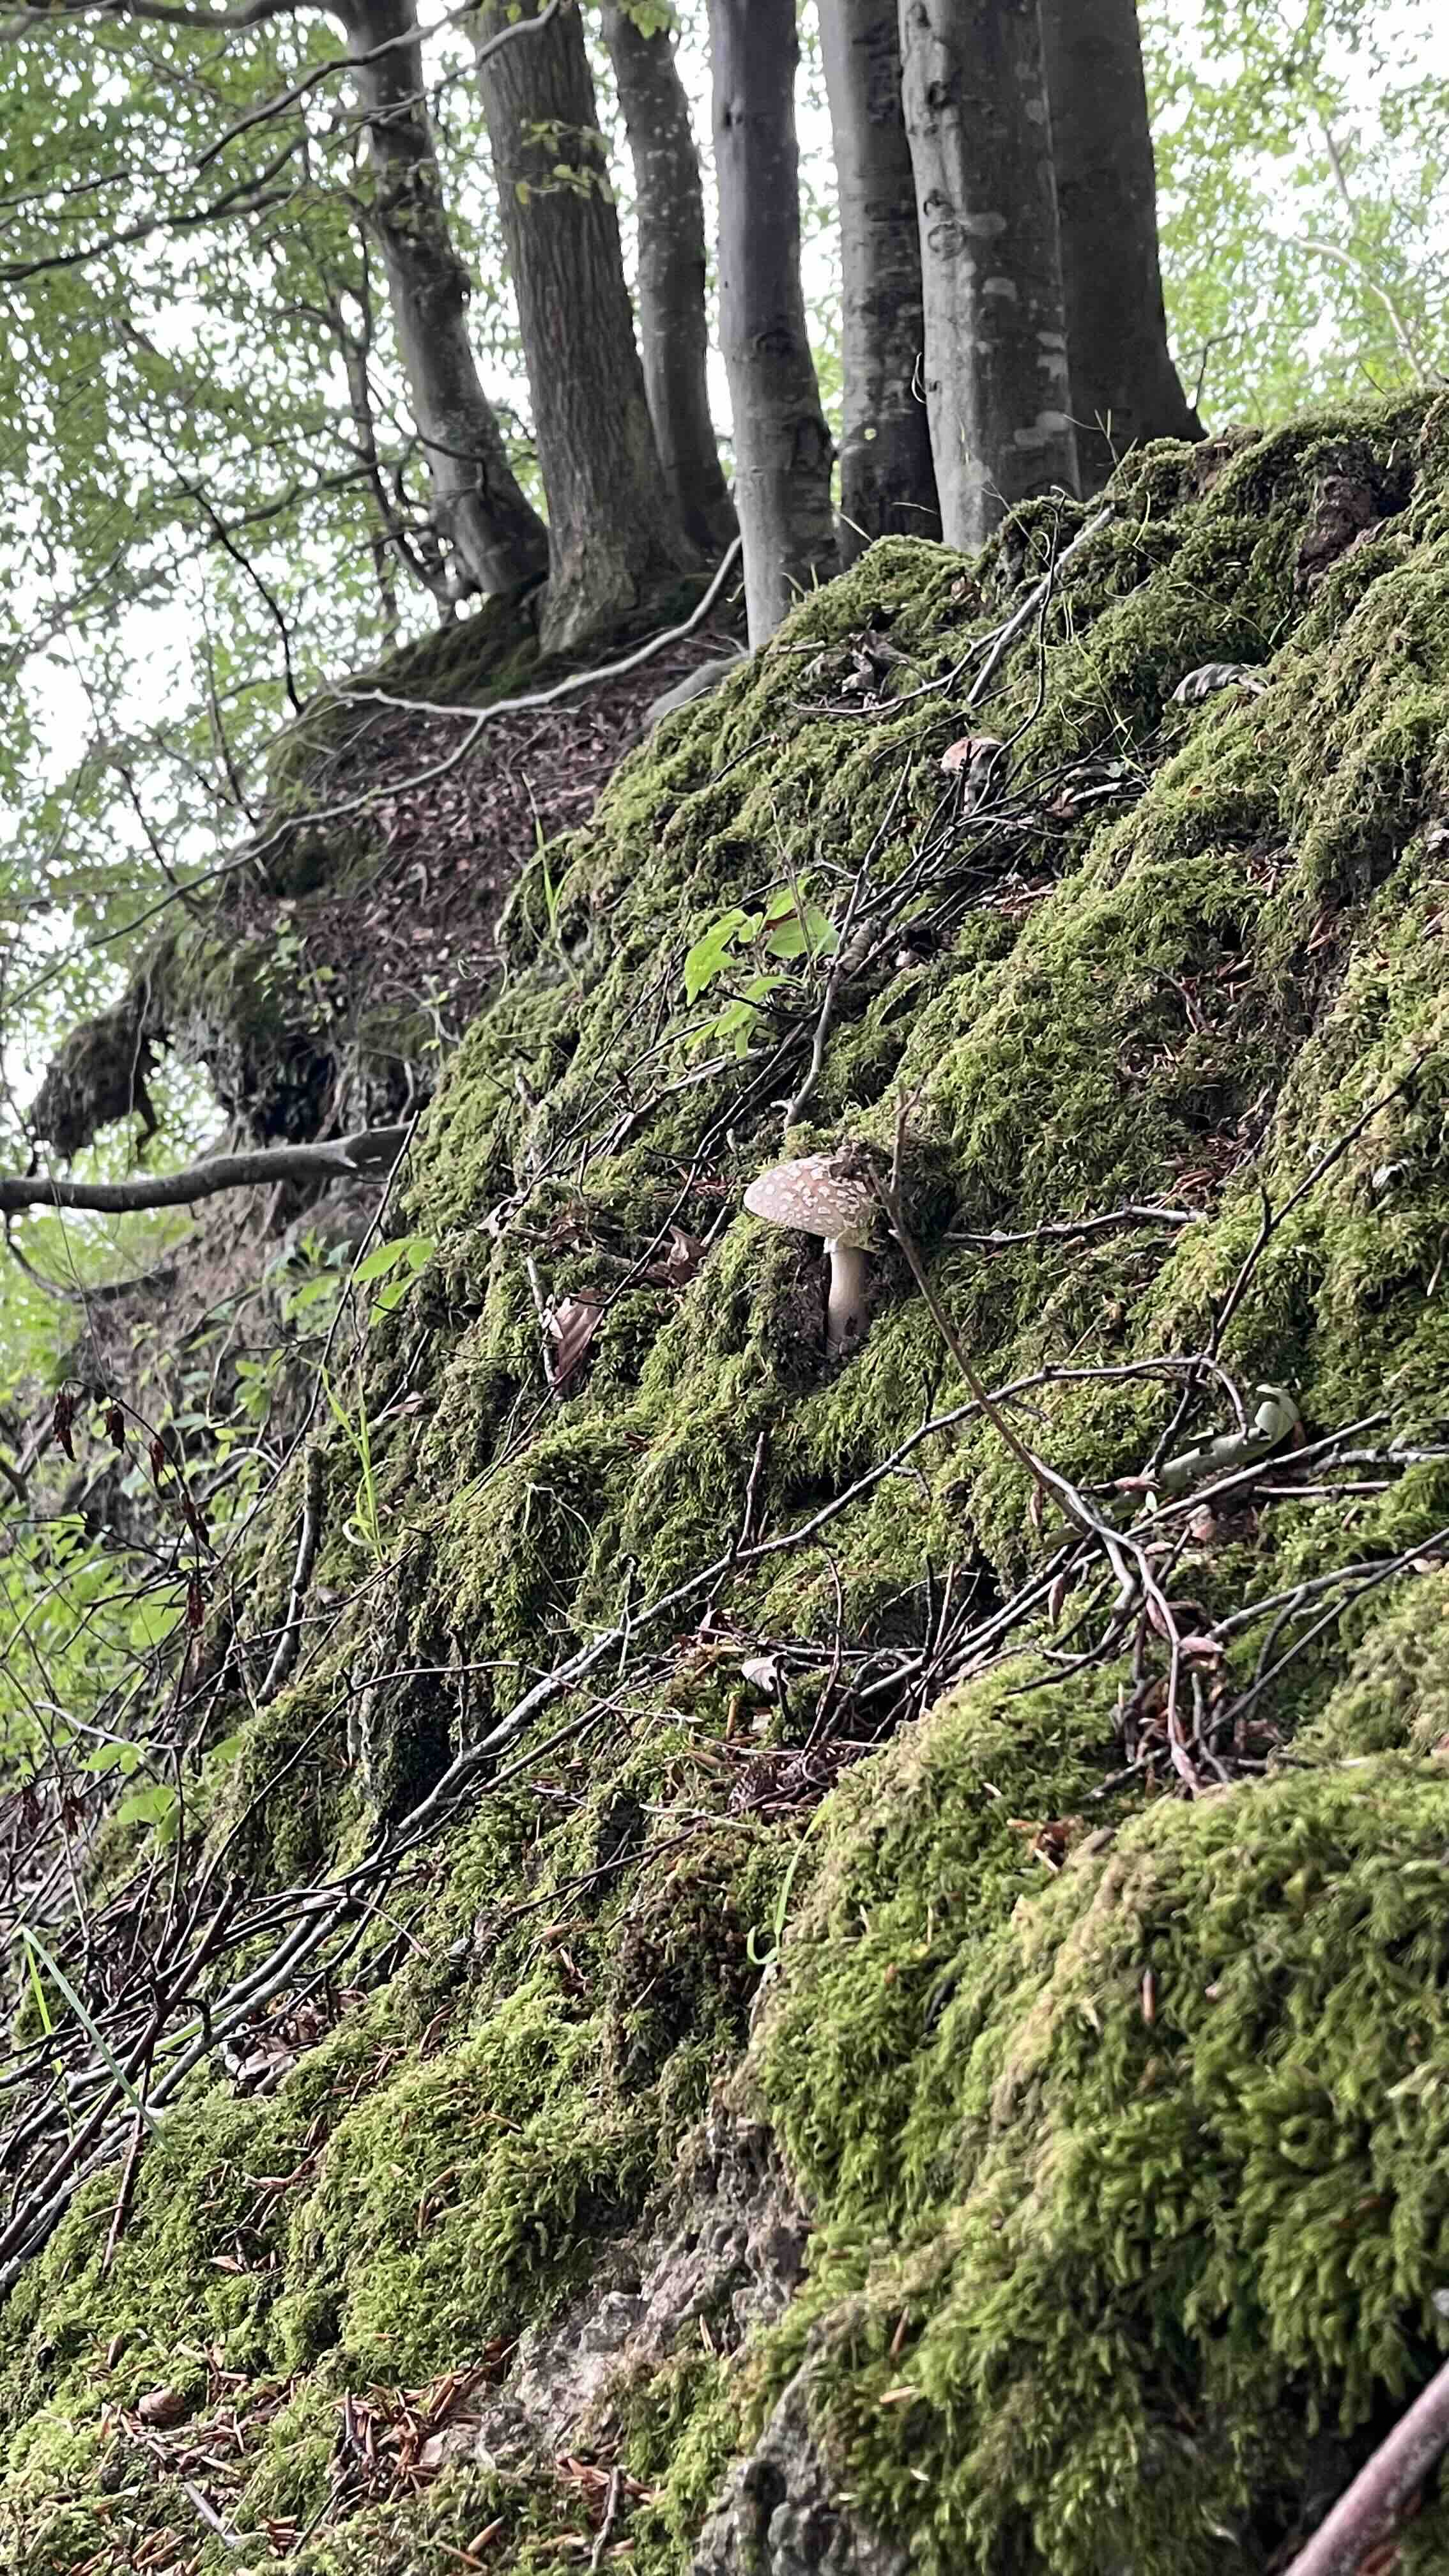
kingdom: Fungi
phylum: Basidiomycota
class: Agaricomycetes
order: Agaricales
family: Amanitaceae
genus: Amanita
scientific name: Amanita rubescens
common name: rødmende fluesvamp
